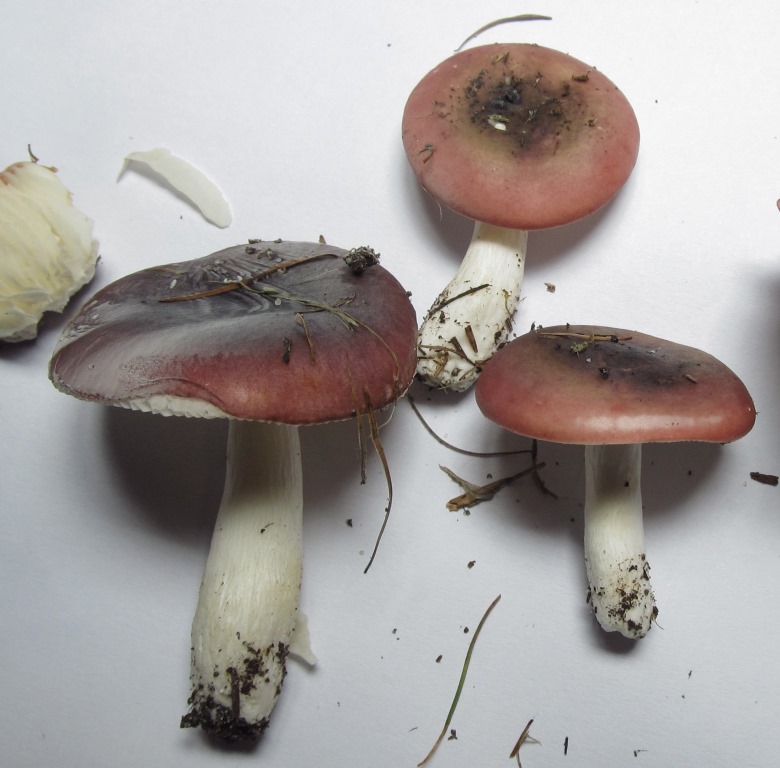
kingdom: Fungi
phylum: Basidiomycota
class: Agaricomycetes
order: Russulales
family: Russulaceae
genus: Russula
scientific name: Russula atrorubens
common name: sortrød skørhat
